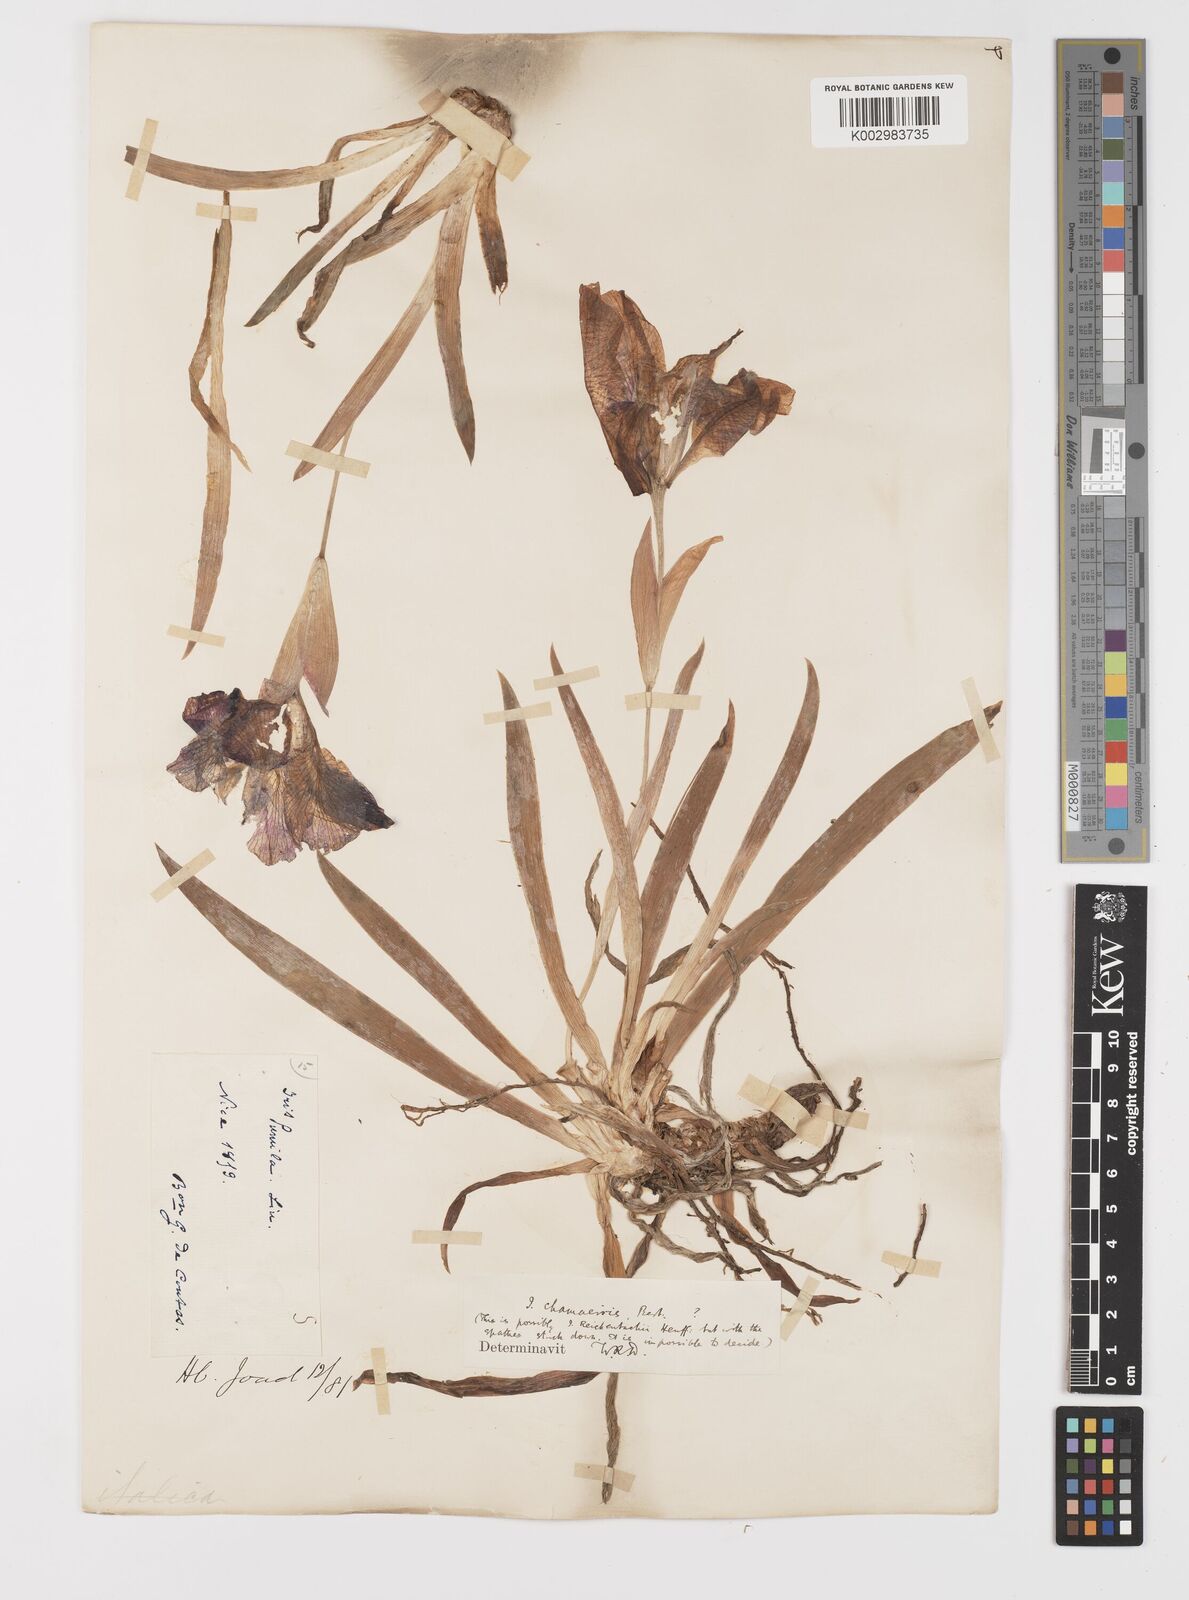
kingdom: Plantae
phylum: Tracheophyta
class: Liliopsida
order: Asparagales
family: Iridaceae
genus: Iris
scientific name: Iris lutescens
